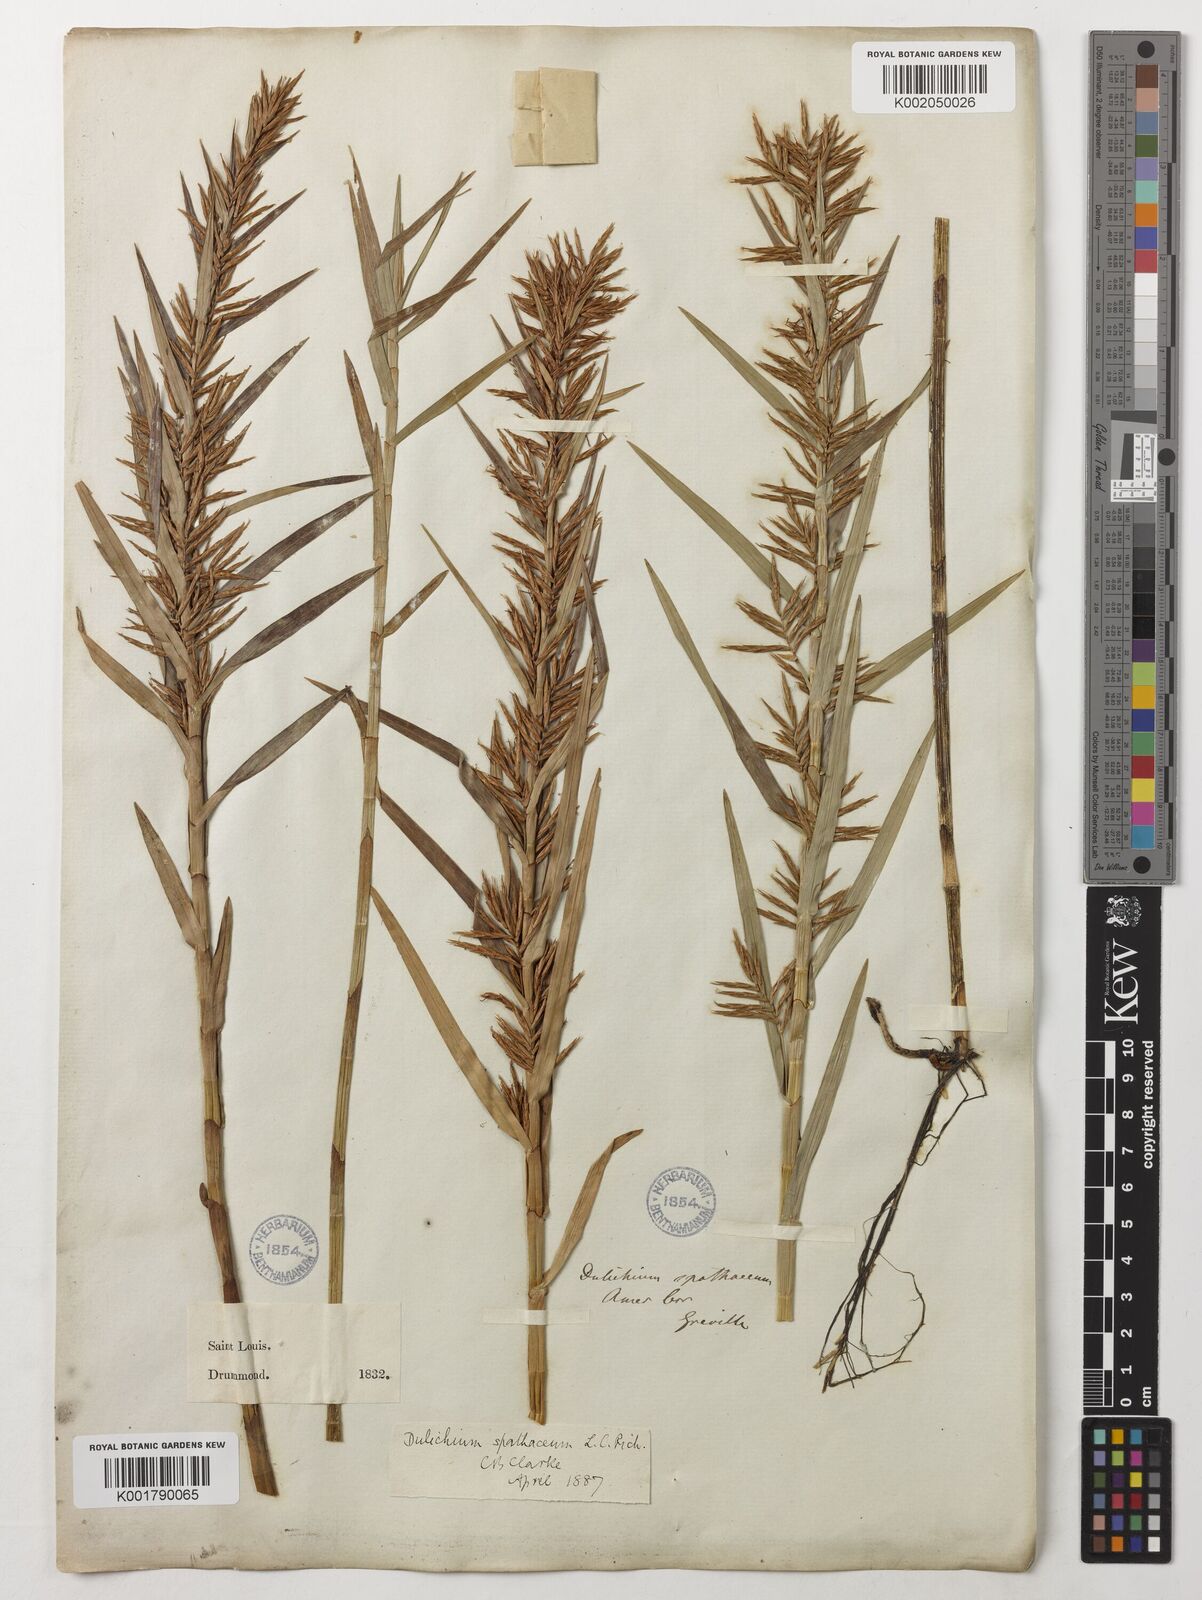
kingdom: Plantae
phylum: Tracheophyta
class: Liliopsida
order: Poales
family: Cyperaceae
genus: Dulichium
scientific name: Dulichium arundinaceum
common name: Three-way sedge
